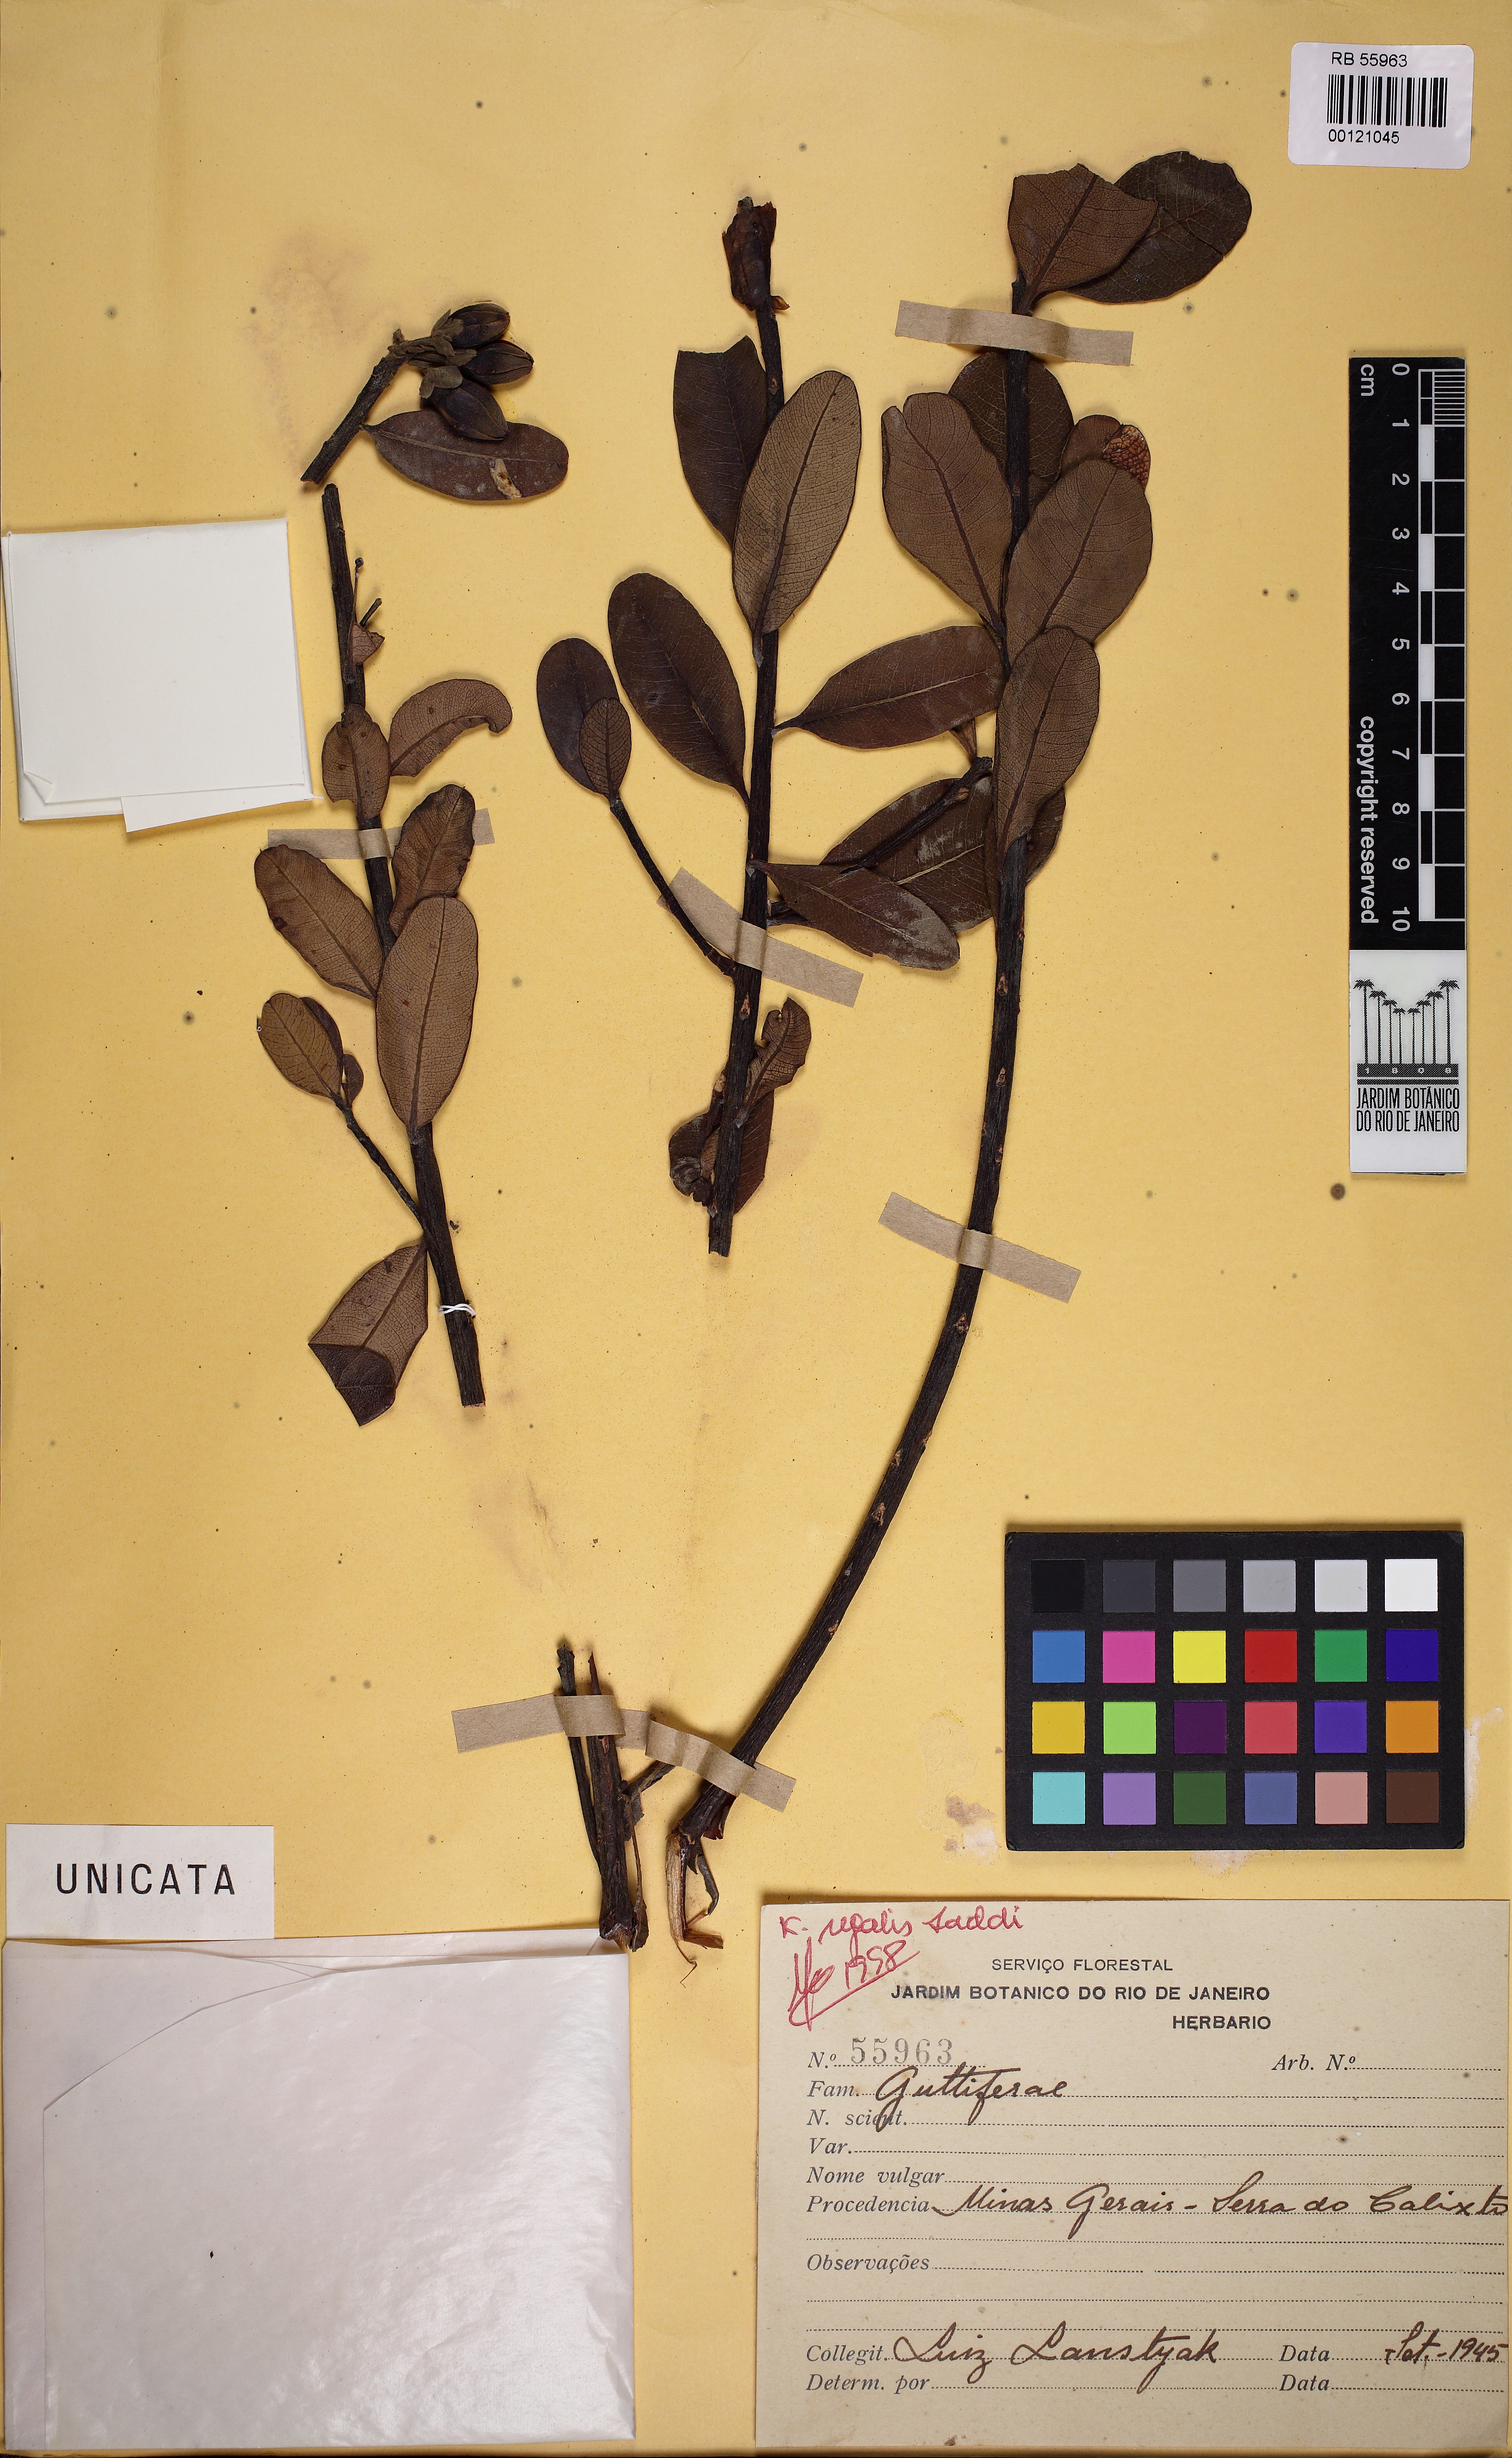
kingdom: Plantae
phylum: Tracheophyta
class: Magnoliopsida
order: Malpighiales
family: Calophyllaceae
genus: Kielmeyera
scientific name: Kielmeyera regalis
